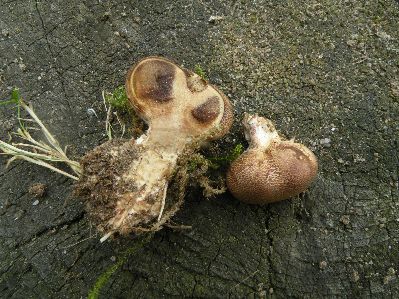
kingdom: Fungi
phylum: Basidiomycota
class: Agaricomycetes
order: Boletales
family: Sclerodermataceae
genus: Scleroderma
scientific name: Scleroderma verrucosum
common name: stilket bruskbold
